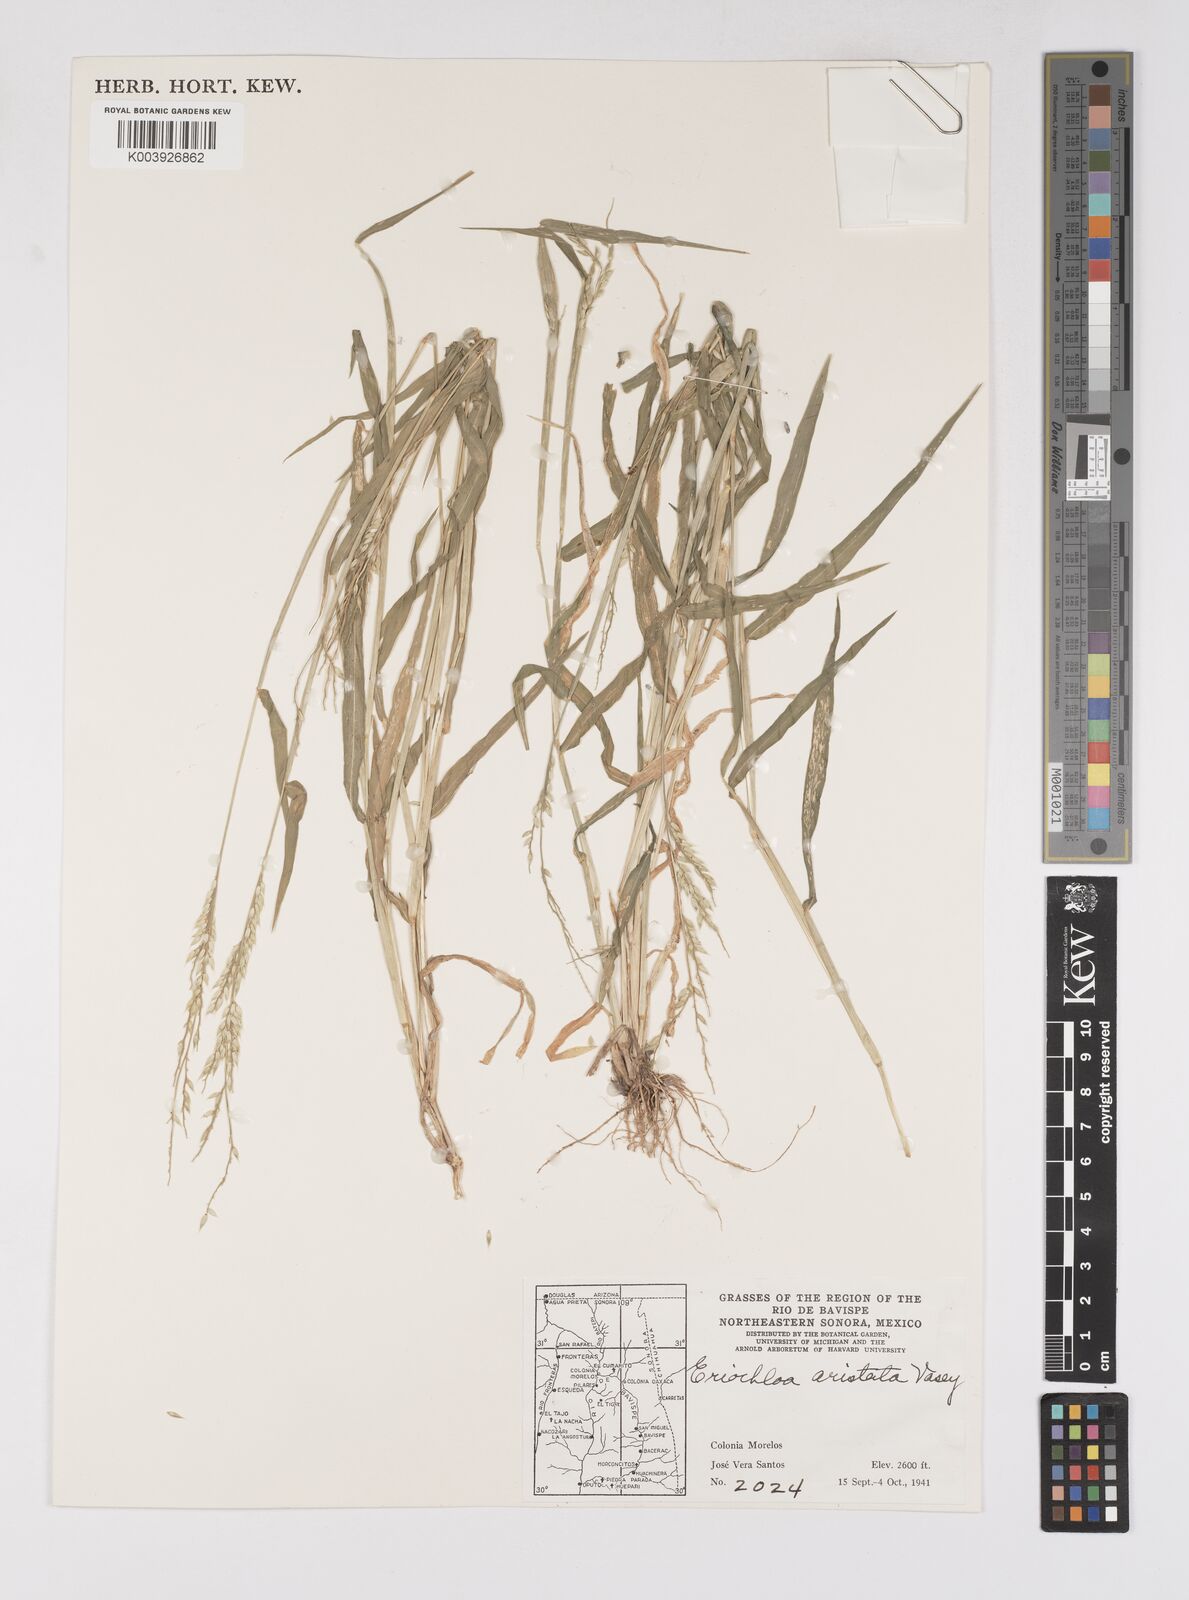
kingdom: Plantae
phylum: Tracheophyta
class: Liliopsida
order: Poales
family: Poaceae
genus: Eriochloa
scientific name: Eriochloa aristata
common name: Bearded cup grass
